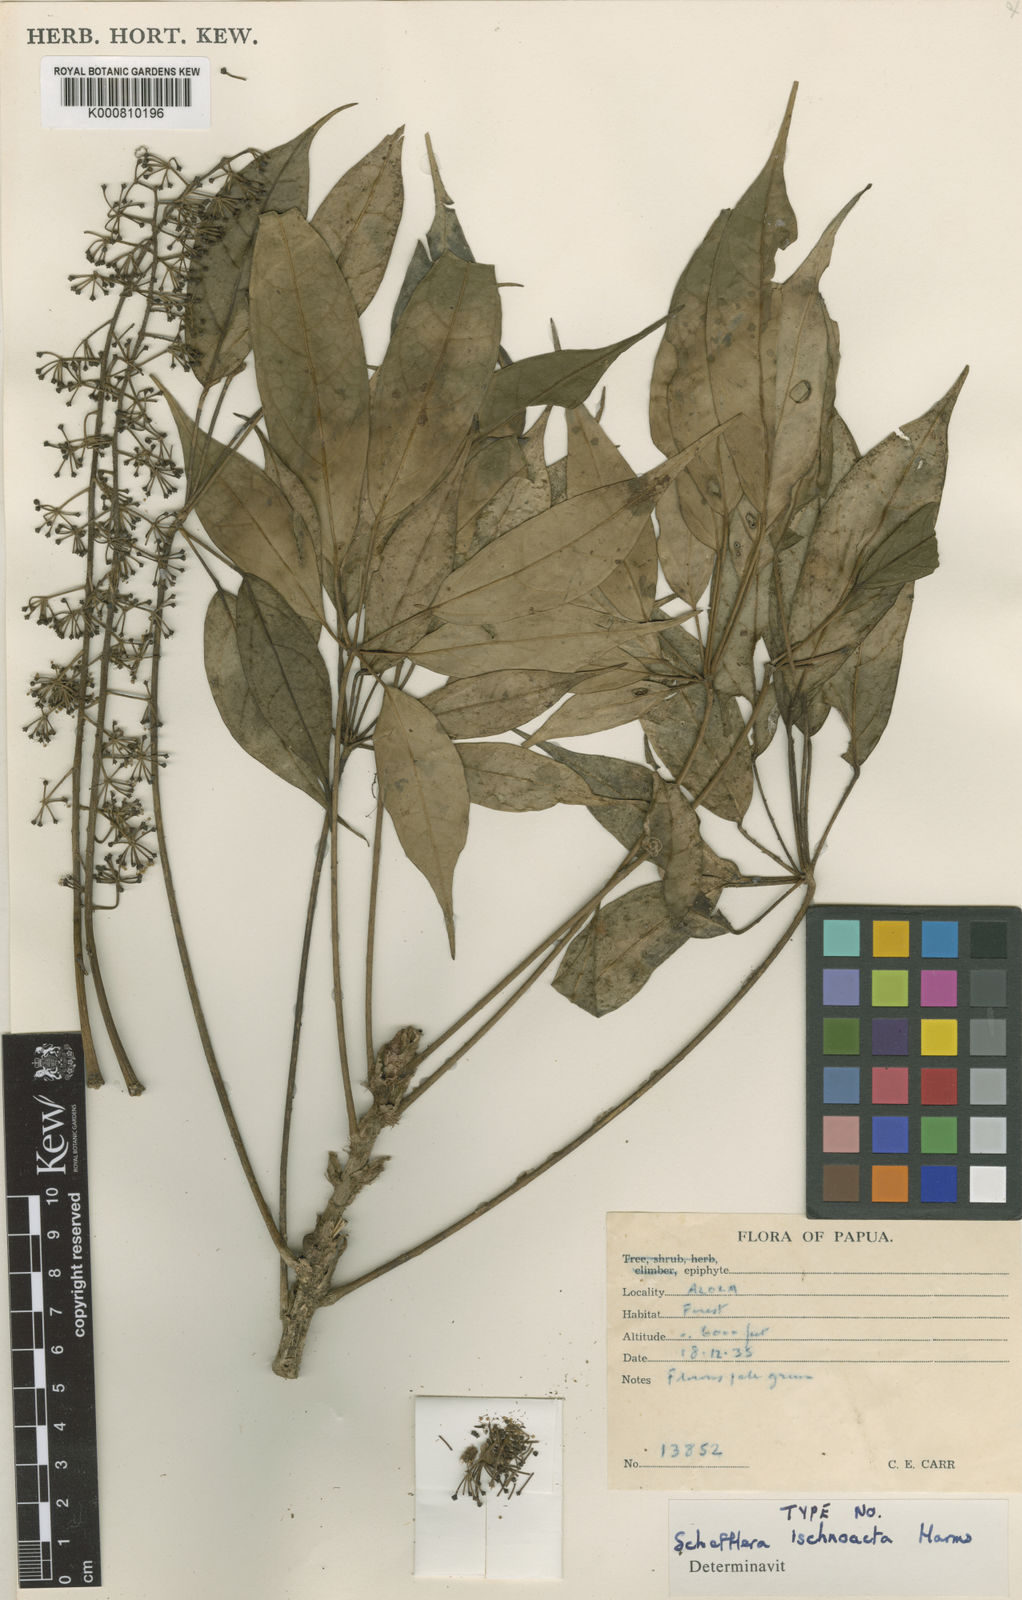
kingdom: Plantae
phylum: Tracheophyta
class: Magnoliopsida
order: Apiales
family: Araliaceae
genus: Heptapleurum
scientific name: Heptapleurum ischnoacrum
